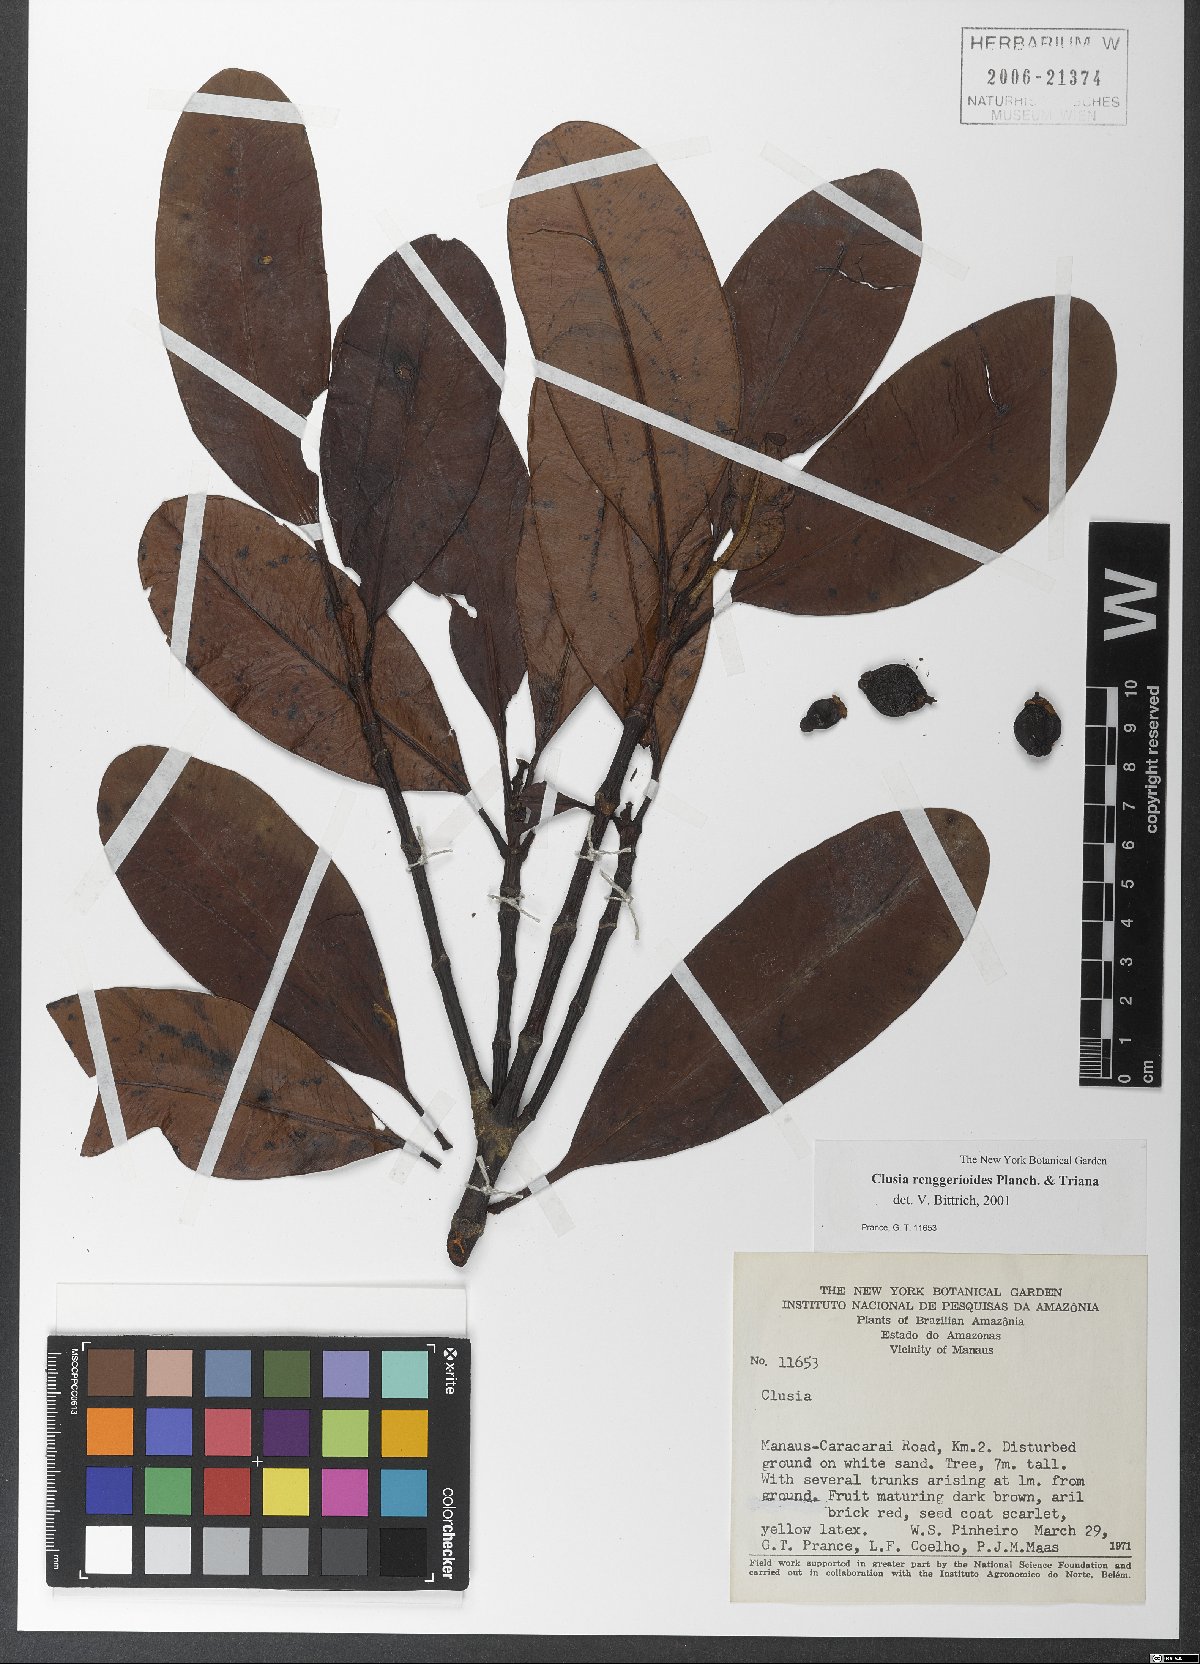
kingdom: Plantae
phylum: Tracheophyta
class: Magnoliopsida
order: Malpighiales
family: Clusiaceae
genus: Clusia
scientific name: Clusia renggerioides
